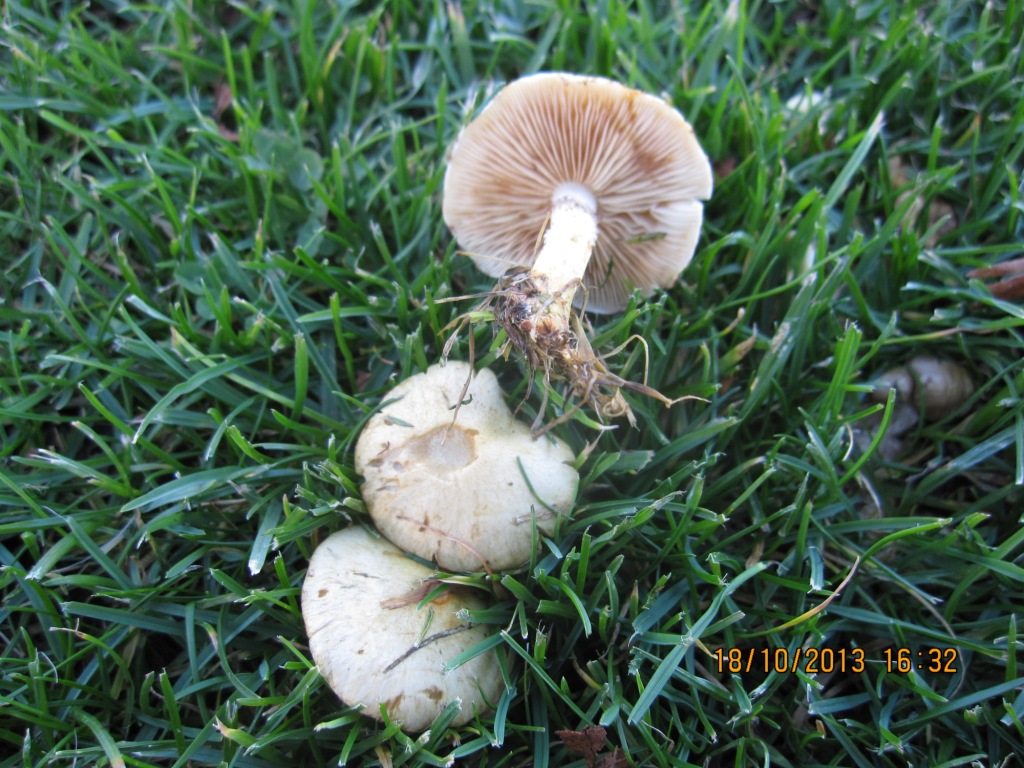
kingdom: Fungi
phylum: Basidiomycota
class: Agaricomycetes
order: Agaricales
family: Strophariaceae
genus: Pholiota
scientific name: Pholiota gummosa
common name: grøngul skælhat
